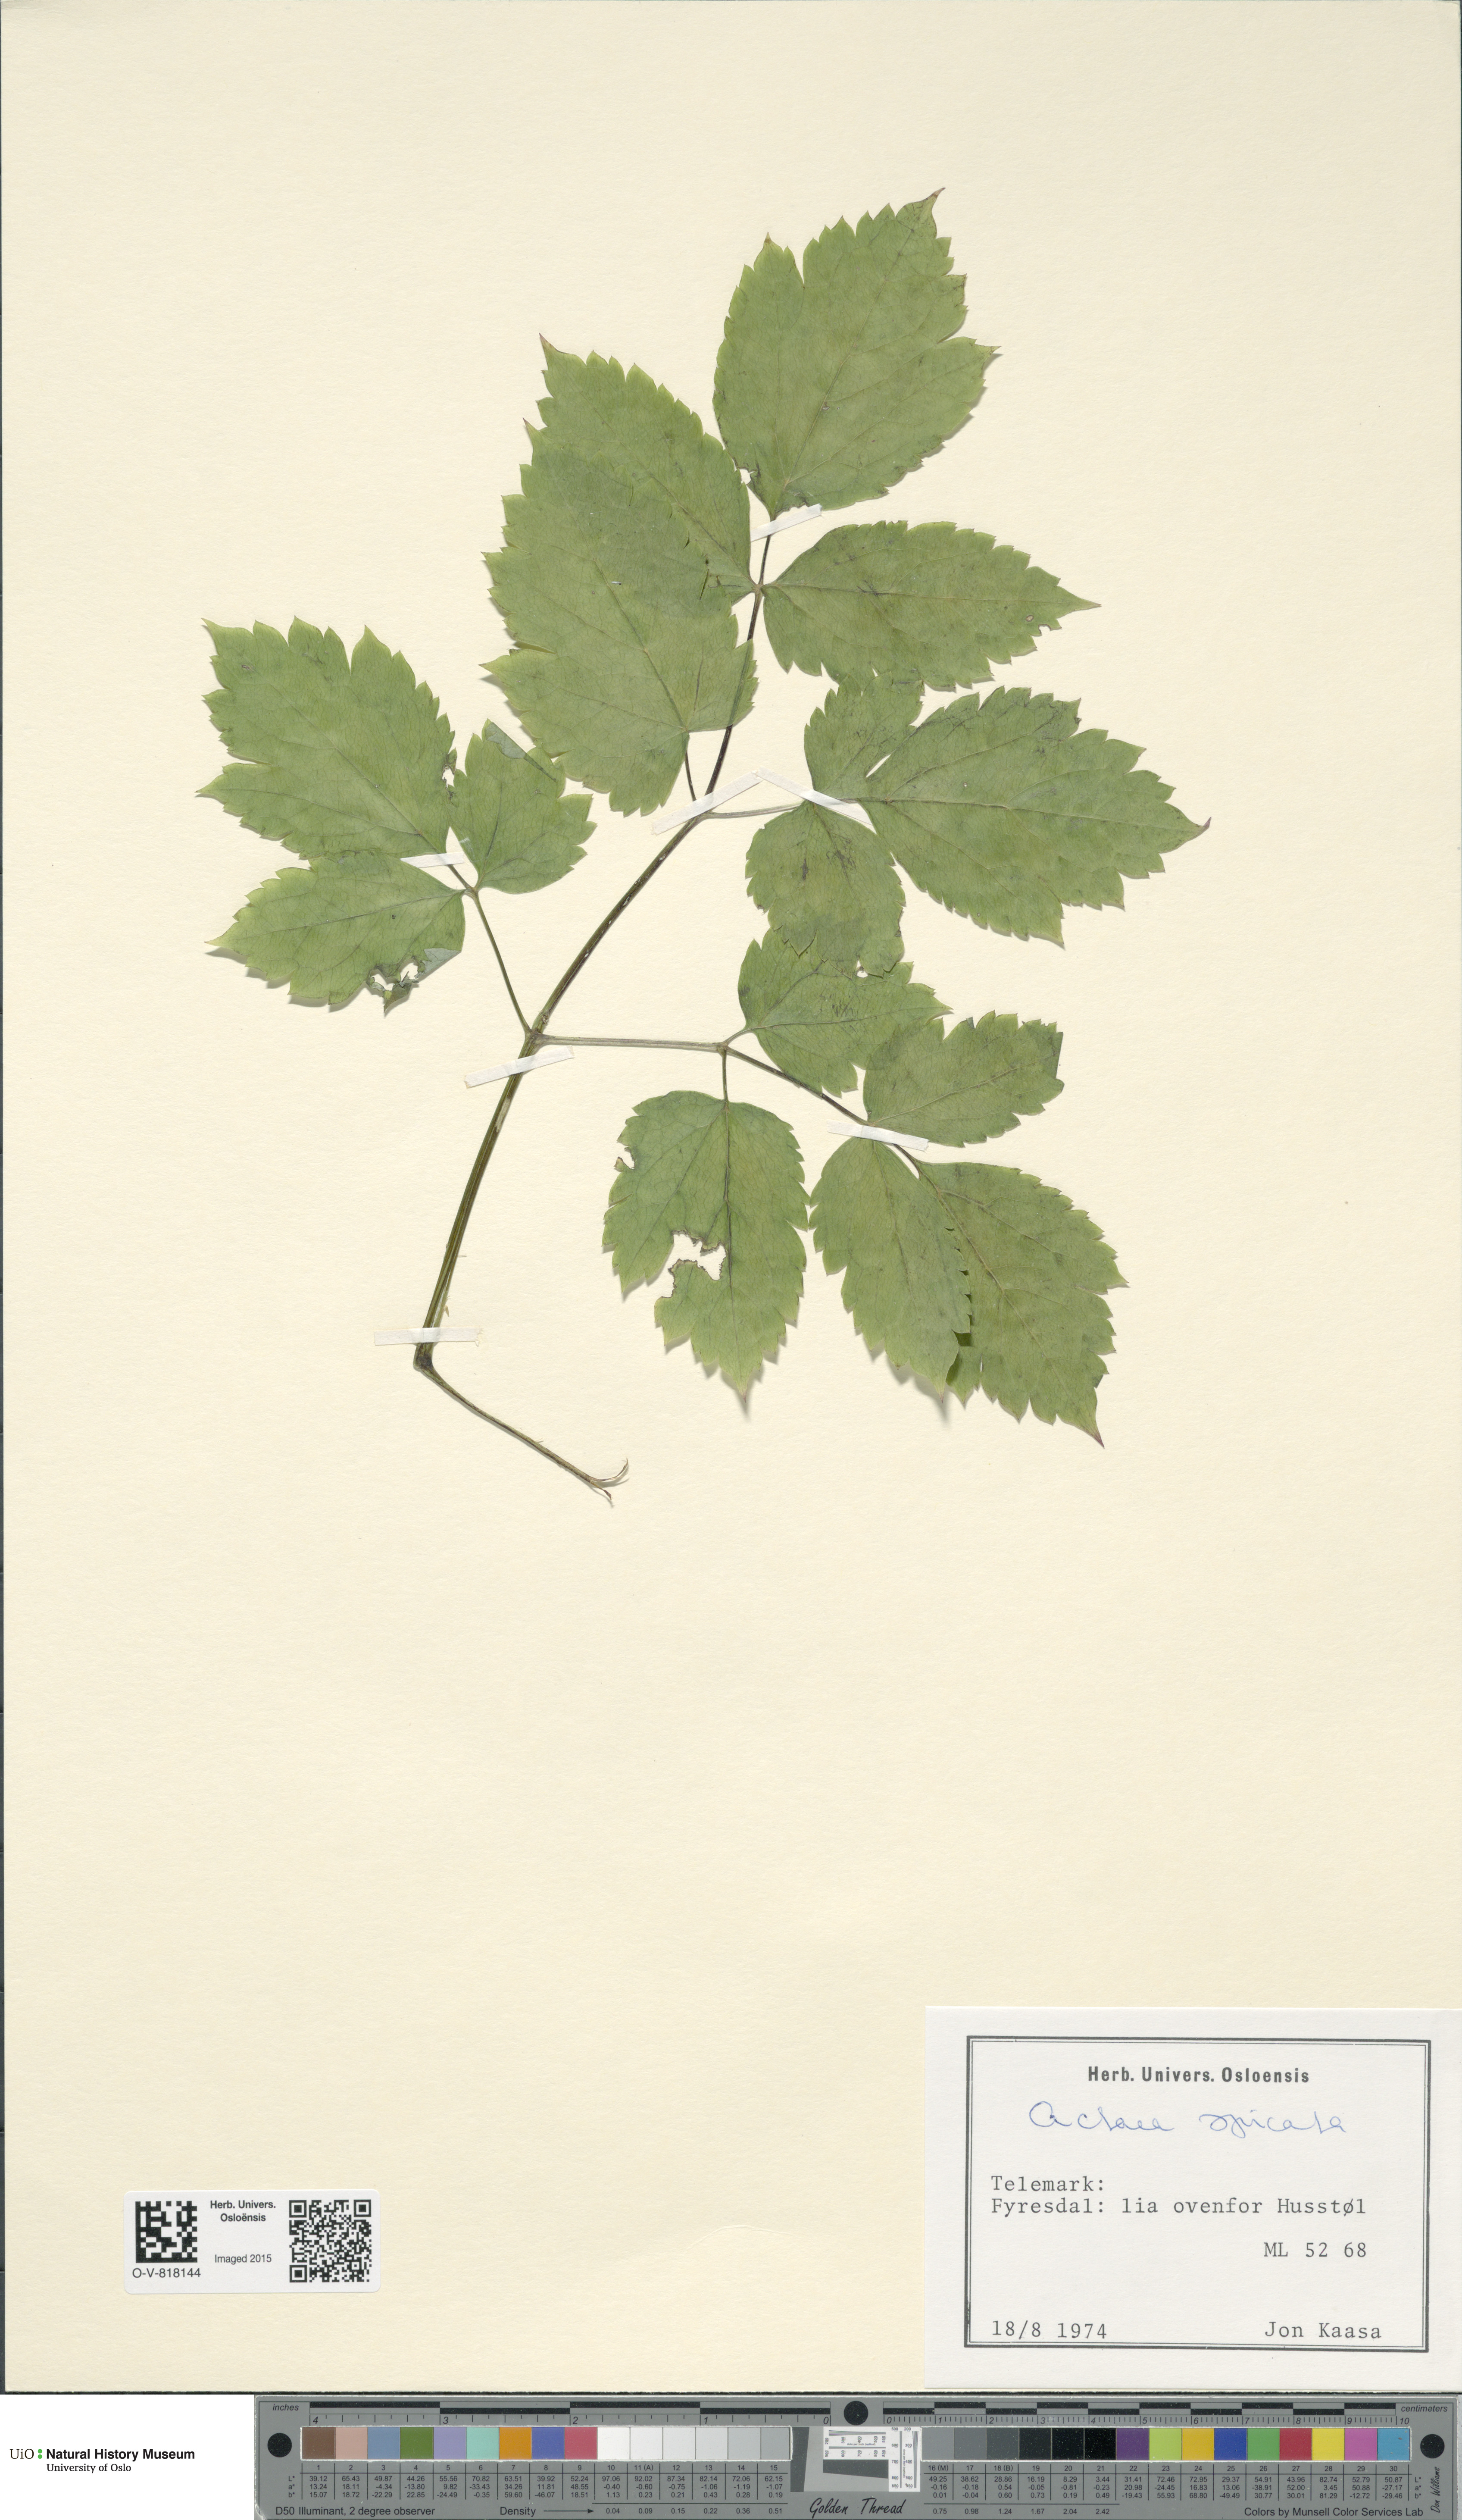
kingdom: Plantae
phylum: Tracheophyta
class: Magnoliopsida
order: Ranunculales
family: Ranunculaceae
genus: Actaea
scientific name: Actaea spicata
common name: Baneberry
